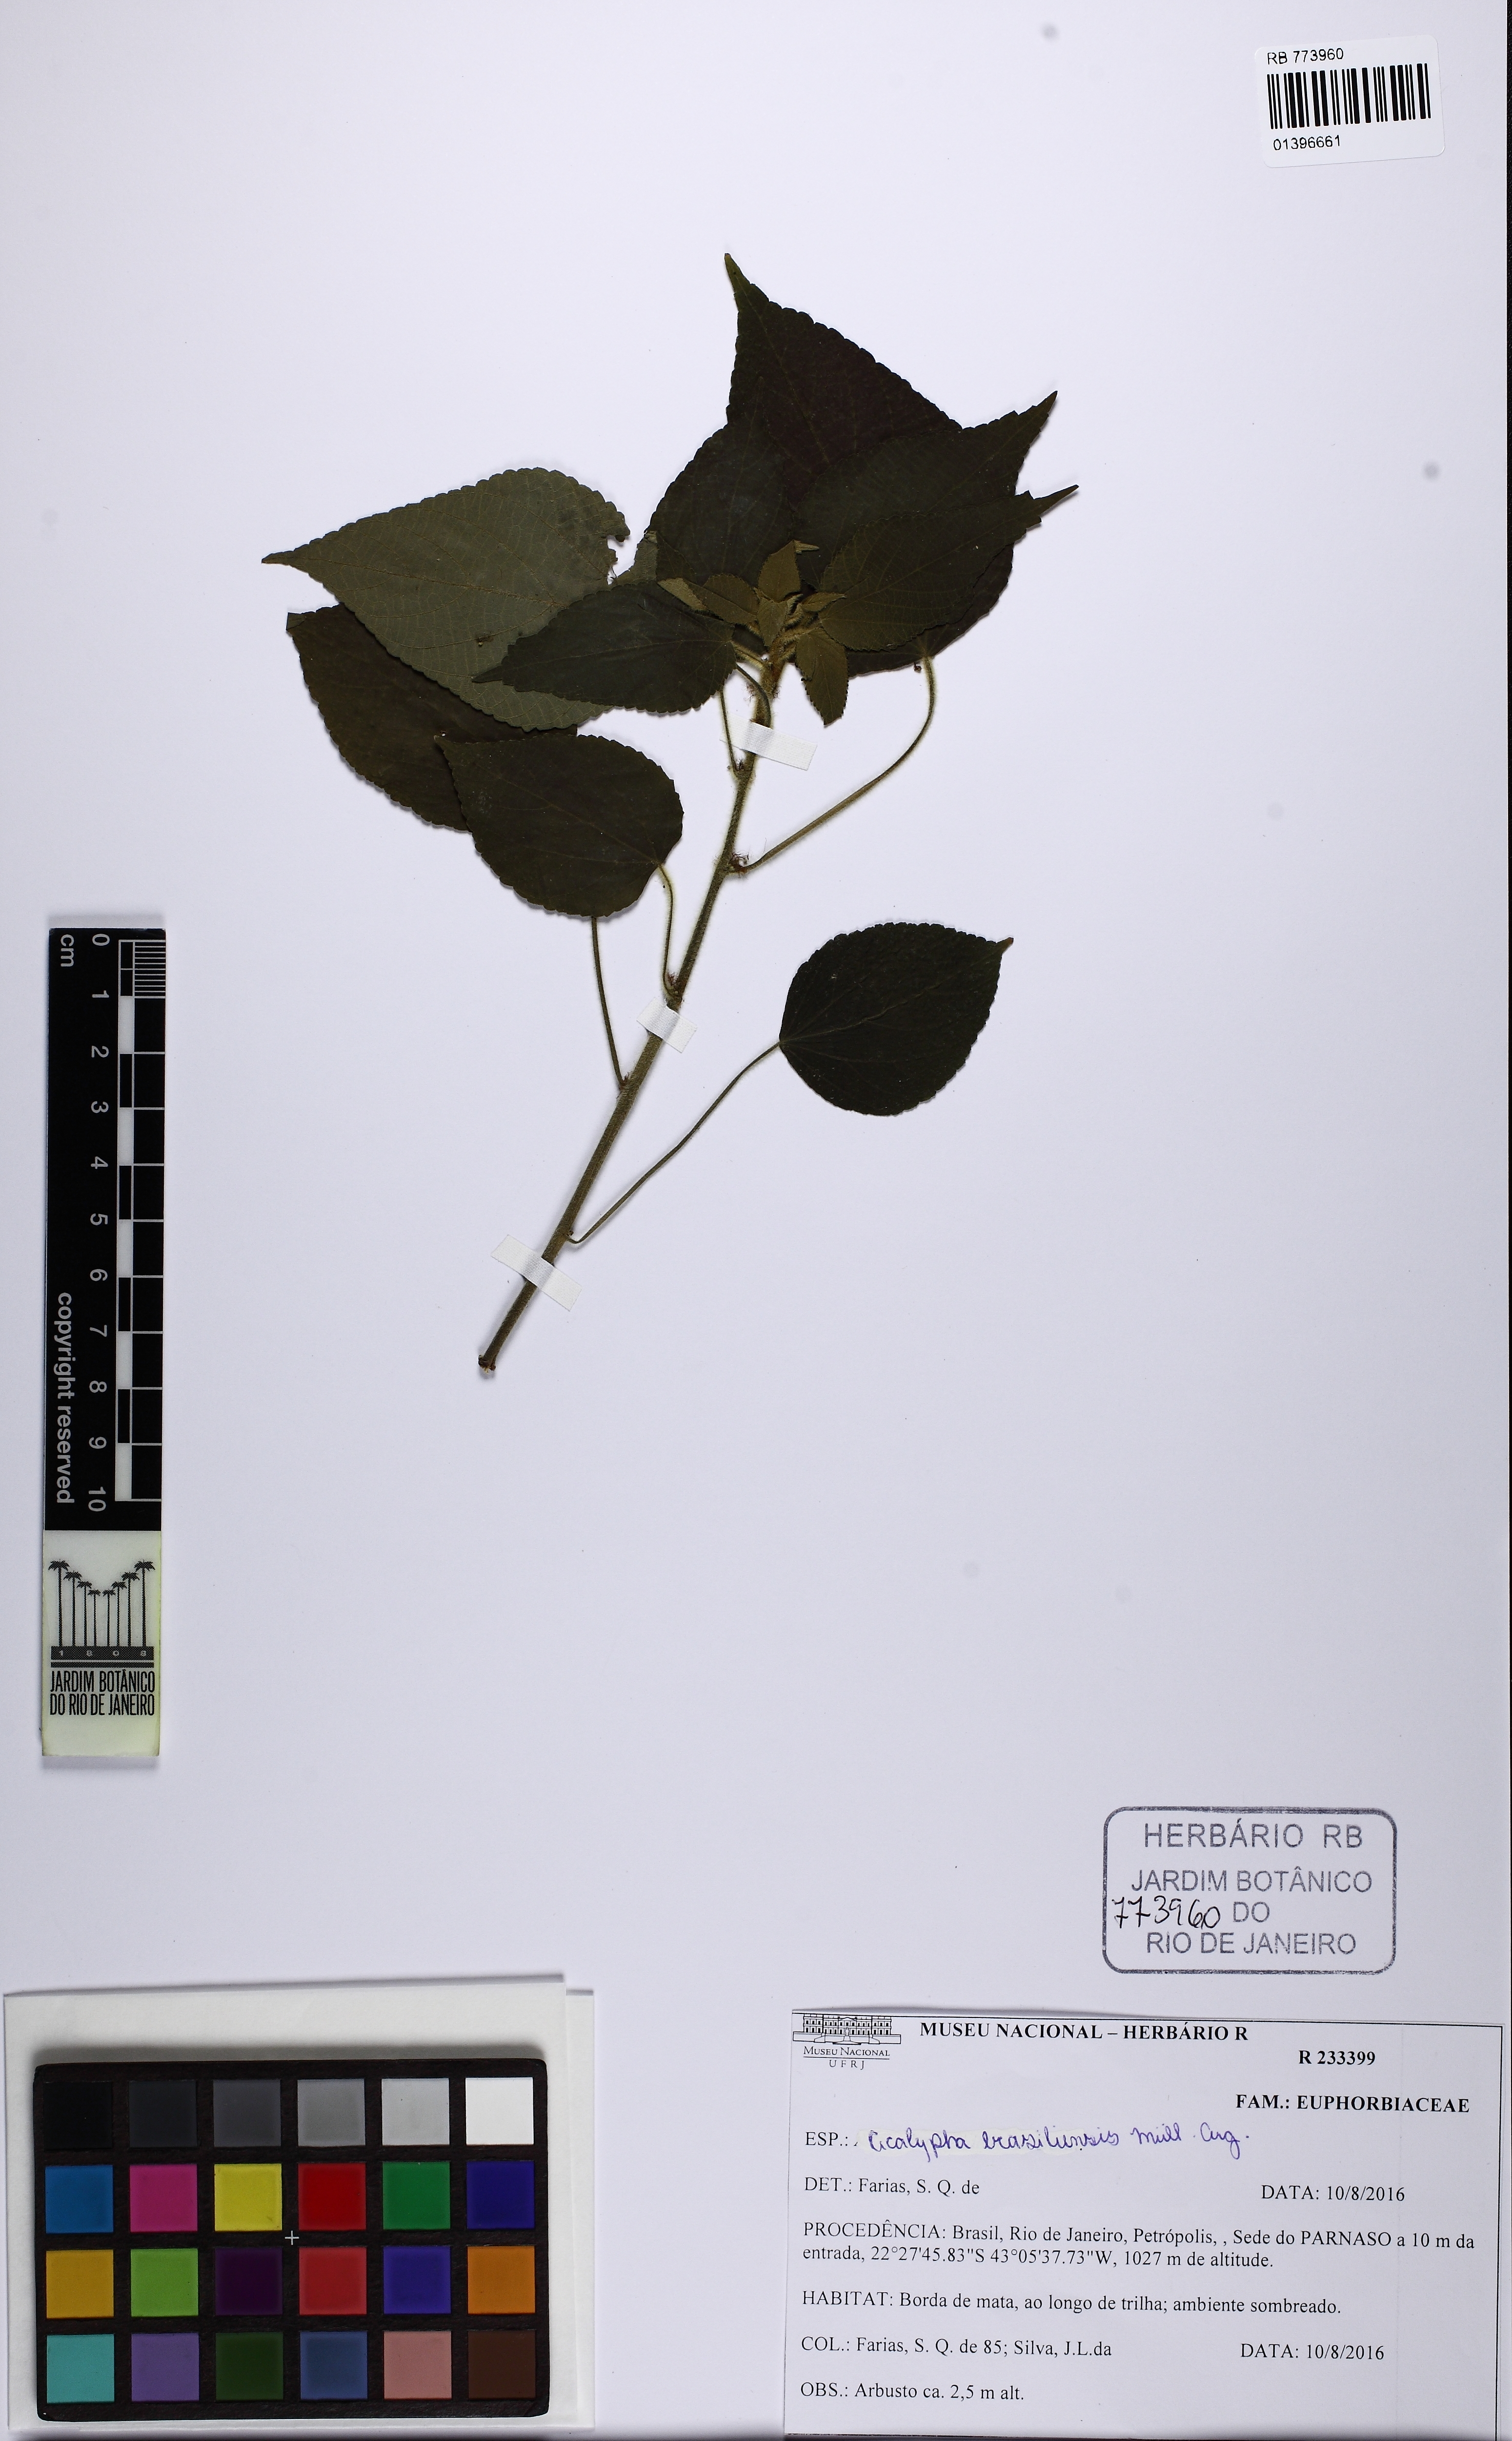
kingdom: Plantae
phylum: Tracheophyta
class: Magnoliopsida
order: Malpighiales
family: Euphorbiaceae
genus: Acalypha
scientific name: Acalypha brasiliensis
